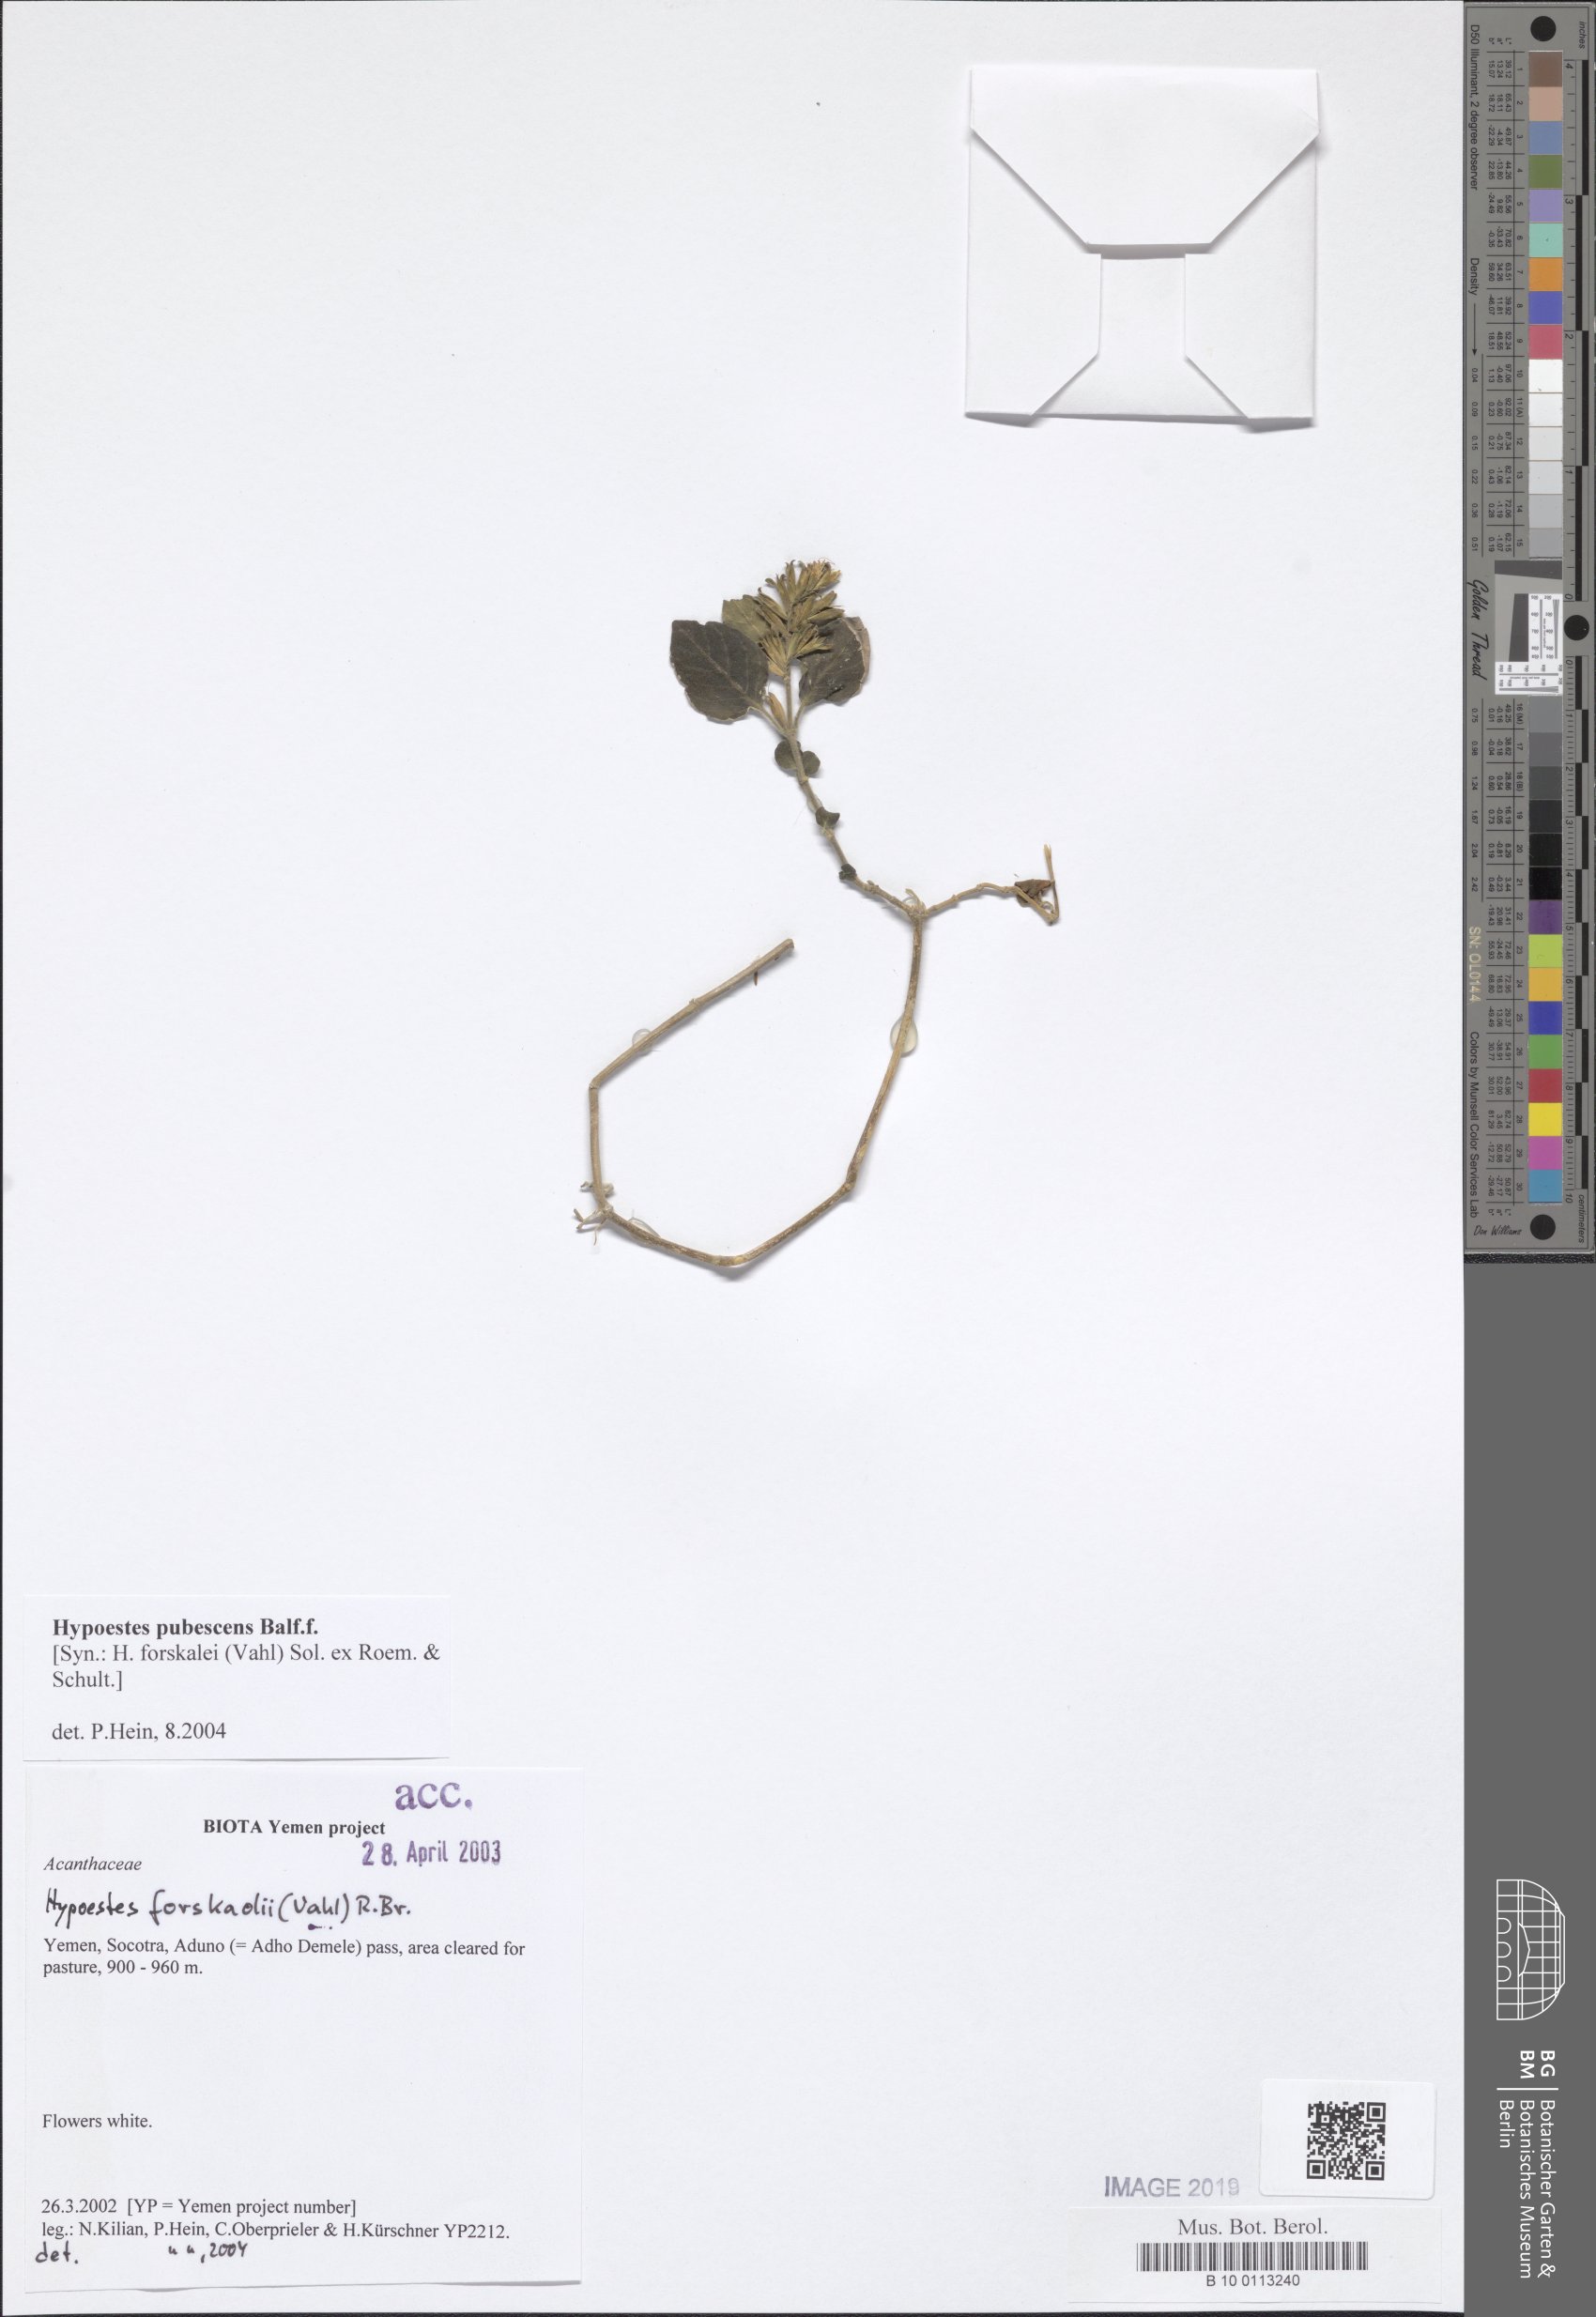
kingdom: Plantae
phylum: Tracheophyta
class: Magnoliopsida
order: Lamiales
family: Acanthaceae
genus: Hypoestes
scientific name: Hypoestes pubescens
